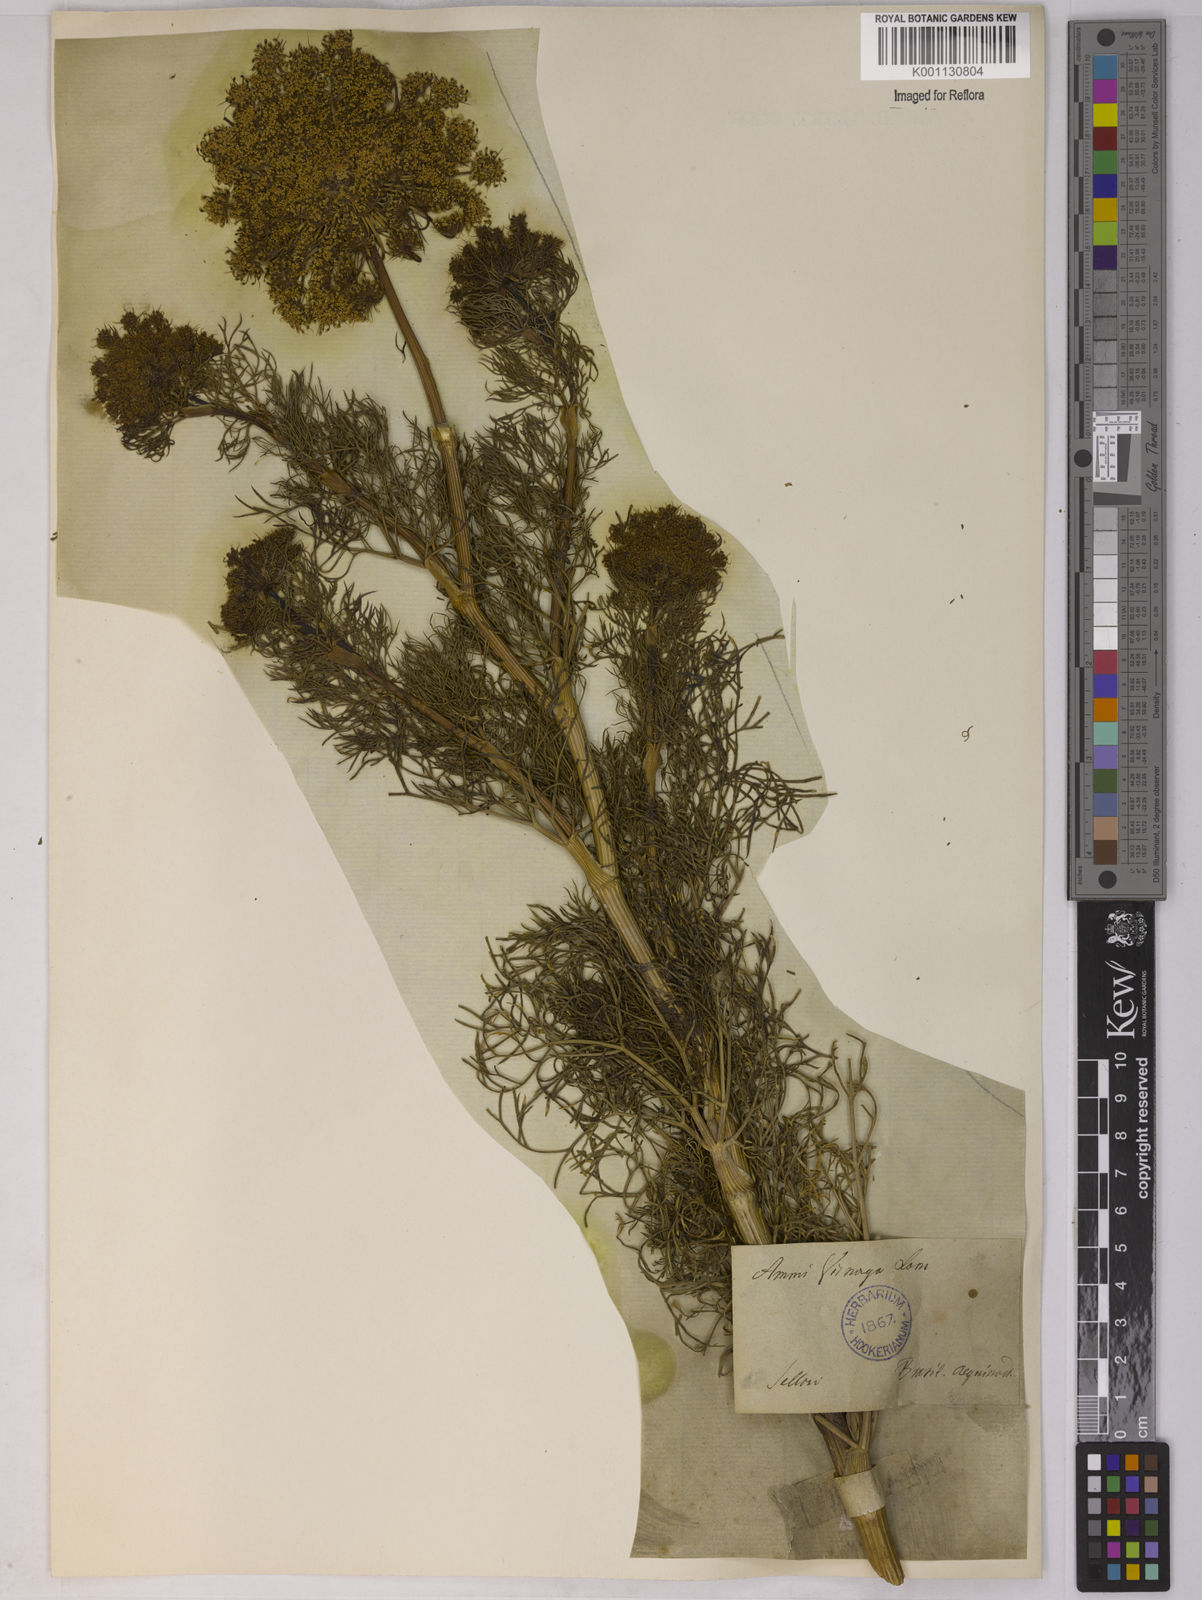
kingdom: Plantae
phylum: Tracheophyta
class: Magnoliopsida
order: Apiales
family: Apiaceae
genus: Visnaga
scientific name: Visnaga daucoides
